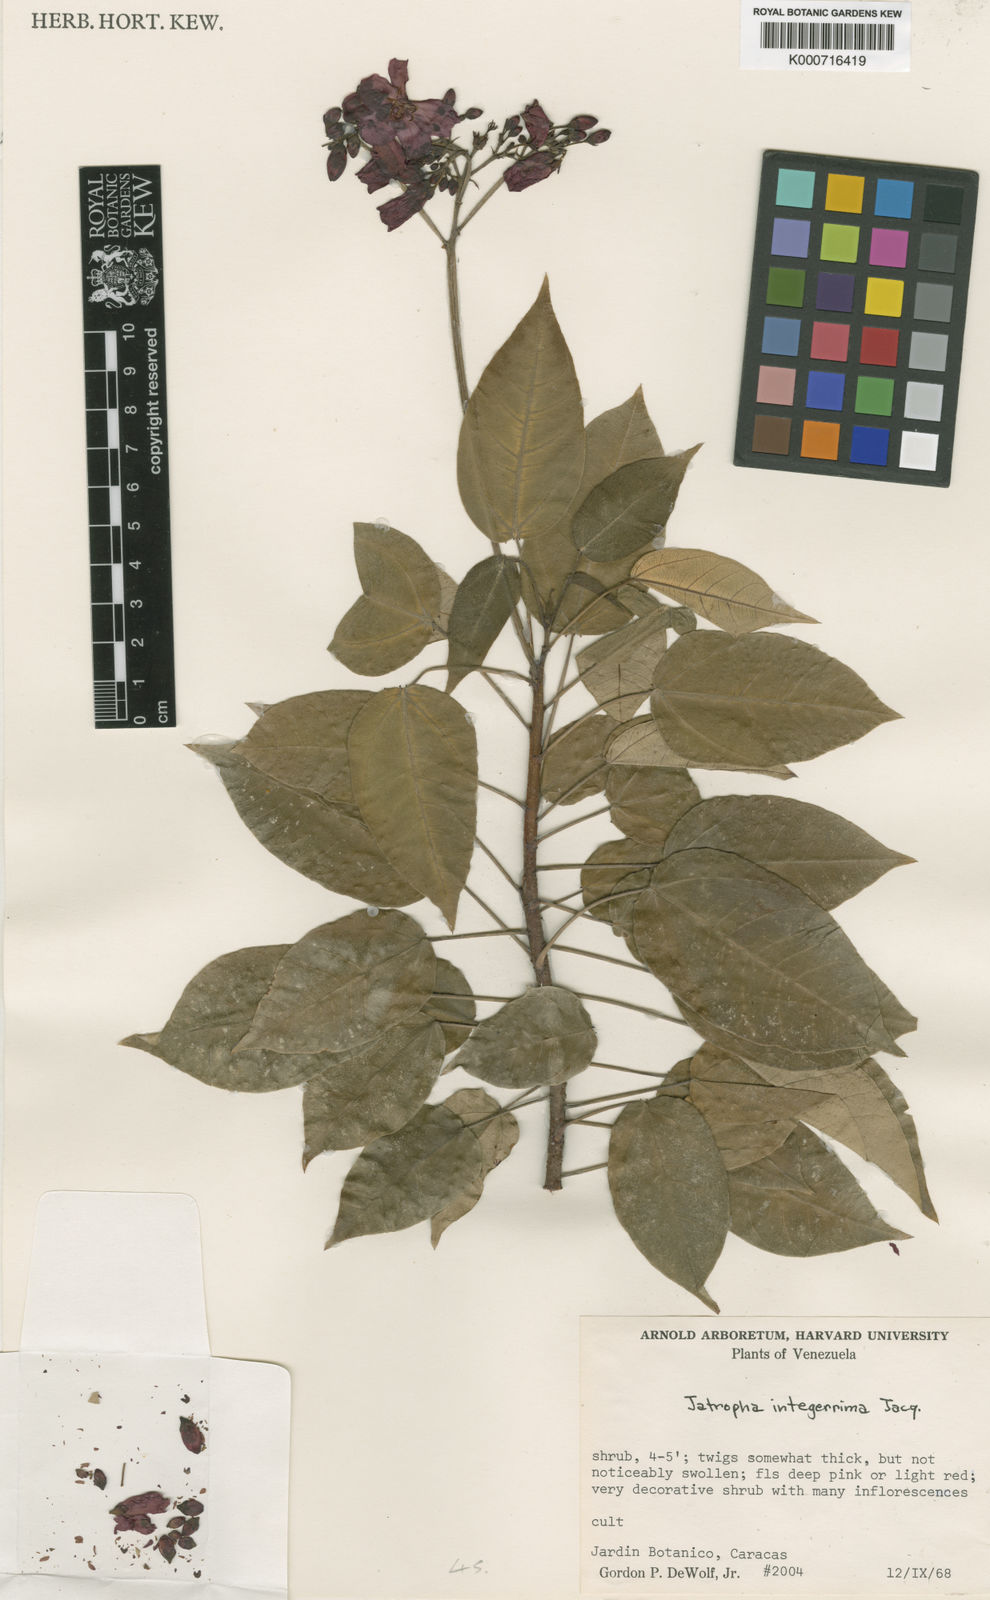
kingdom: Plantae
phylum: Tracheophyta
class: Magnoliopsida
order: Malpighiales
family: Euphorbiaceae
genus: Jatropha
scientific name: Jatropha integerrima
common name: Peregrina
